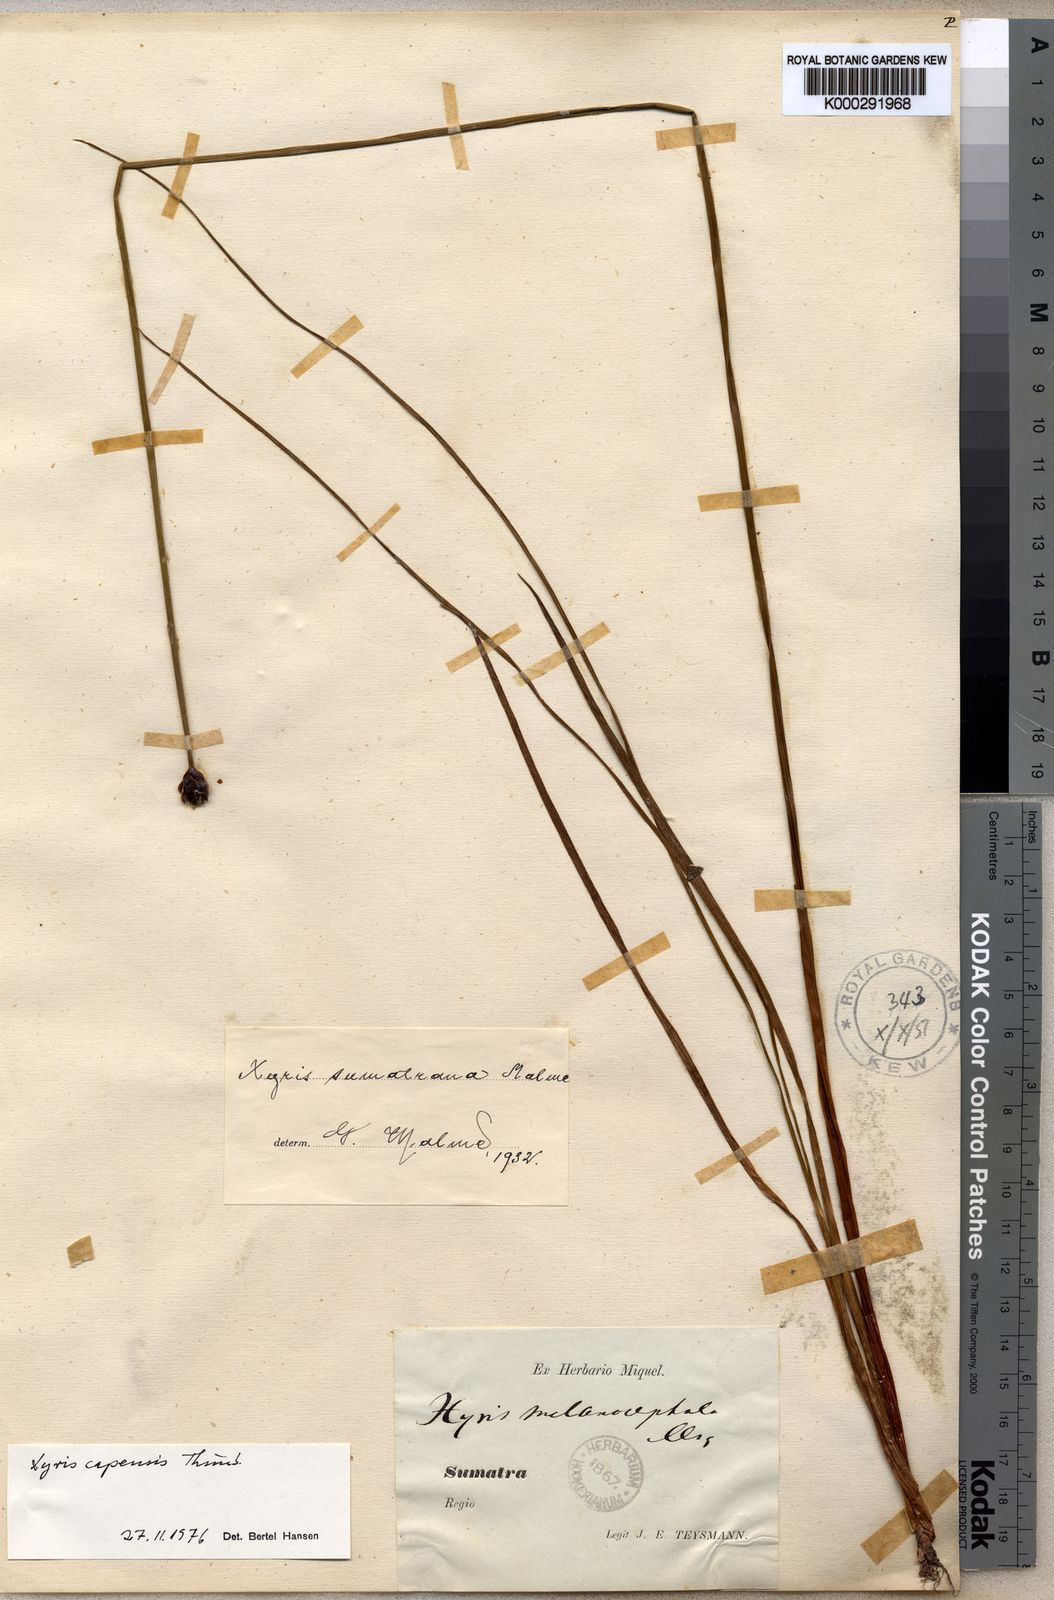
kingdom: Plantae
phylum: Tracheophyta
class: Liliopsida
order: Poales
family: Xyridaceae
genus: Xyris
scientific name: Xyris capensis
